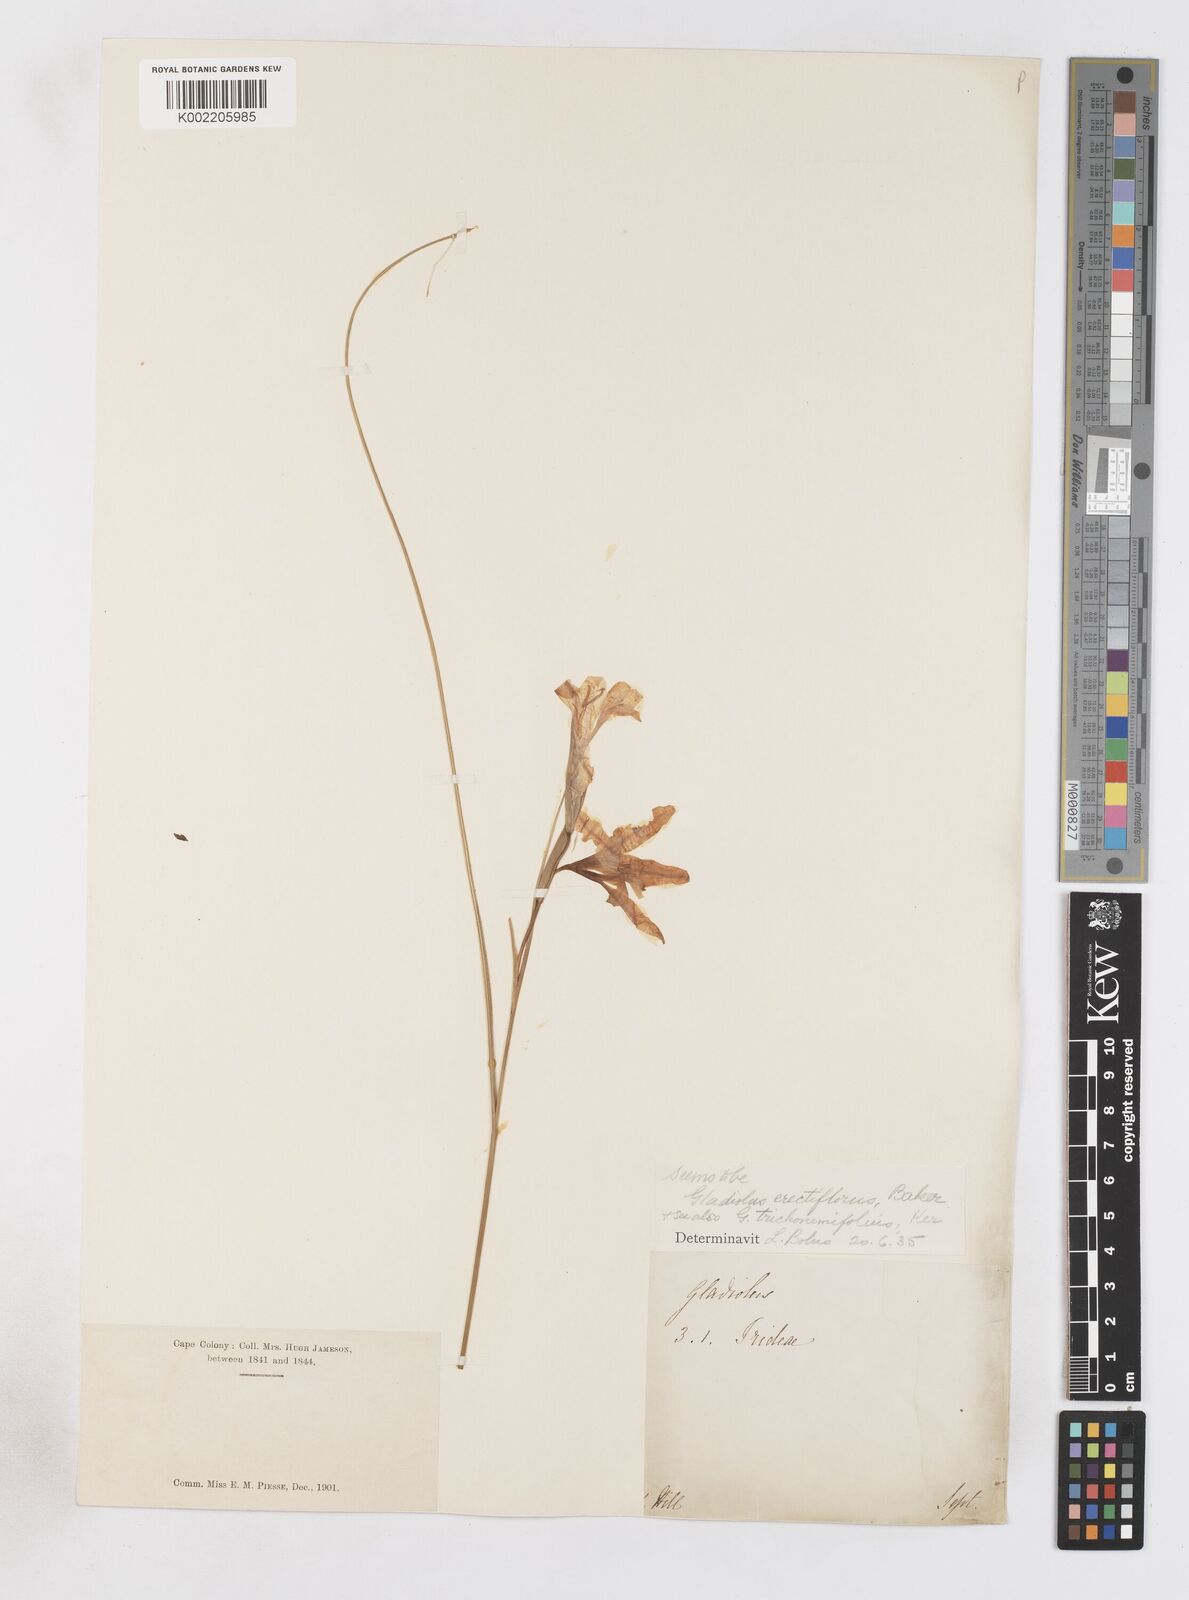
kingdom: Plantae
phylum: Tracheophyta
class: Liliopsida
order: Asparagales
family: Iridaceae
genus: Gladiolus
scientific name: Gladiolus carinatus
